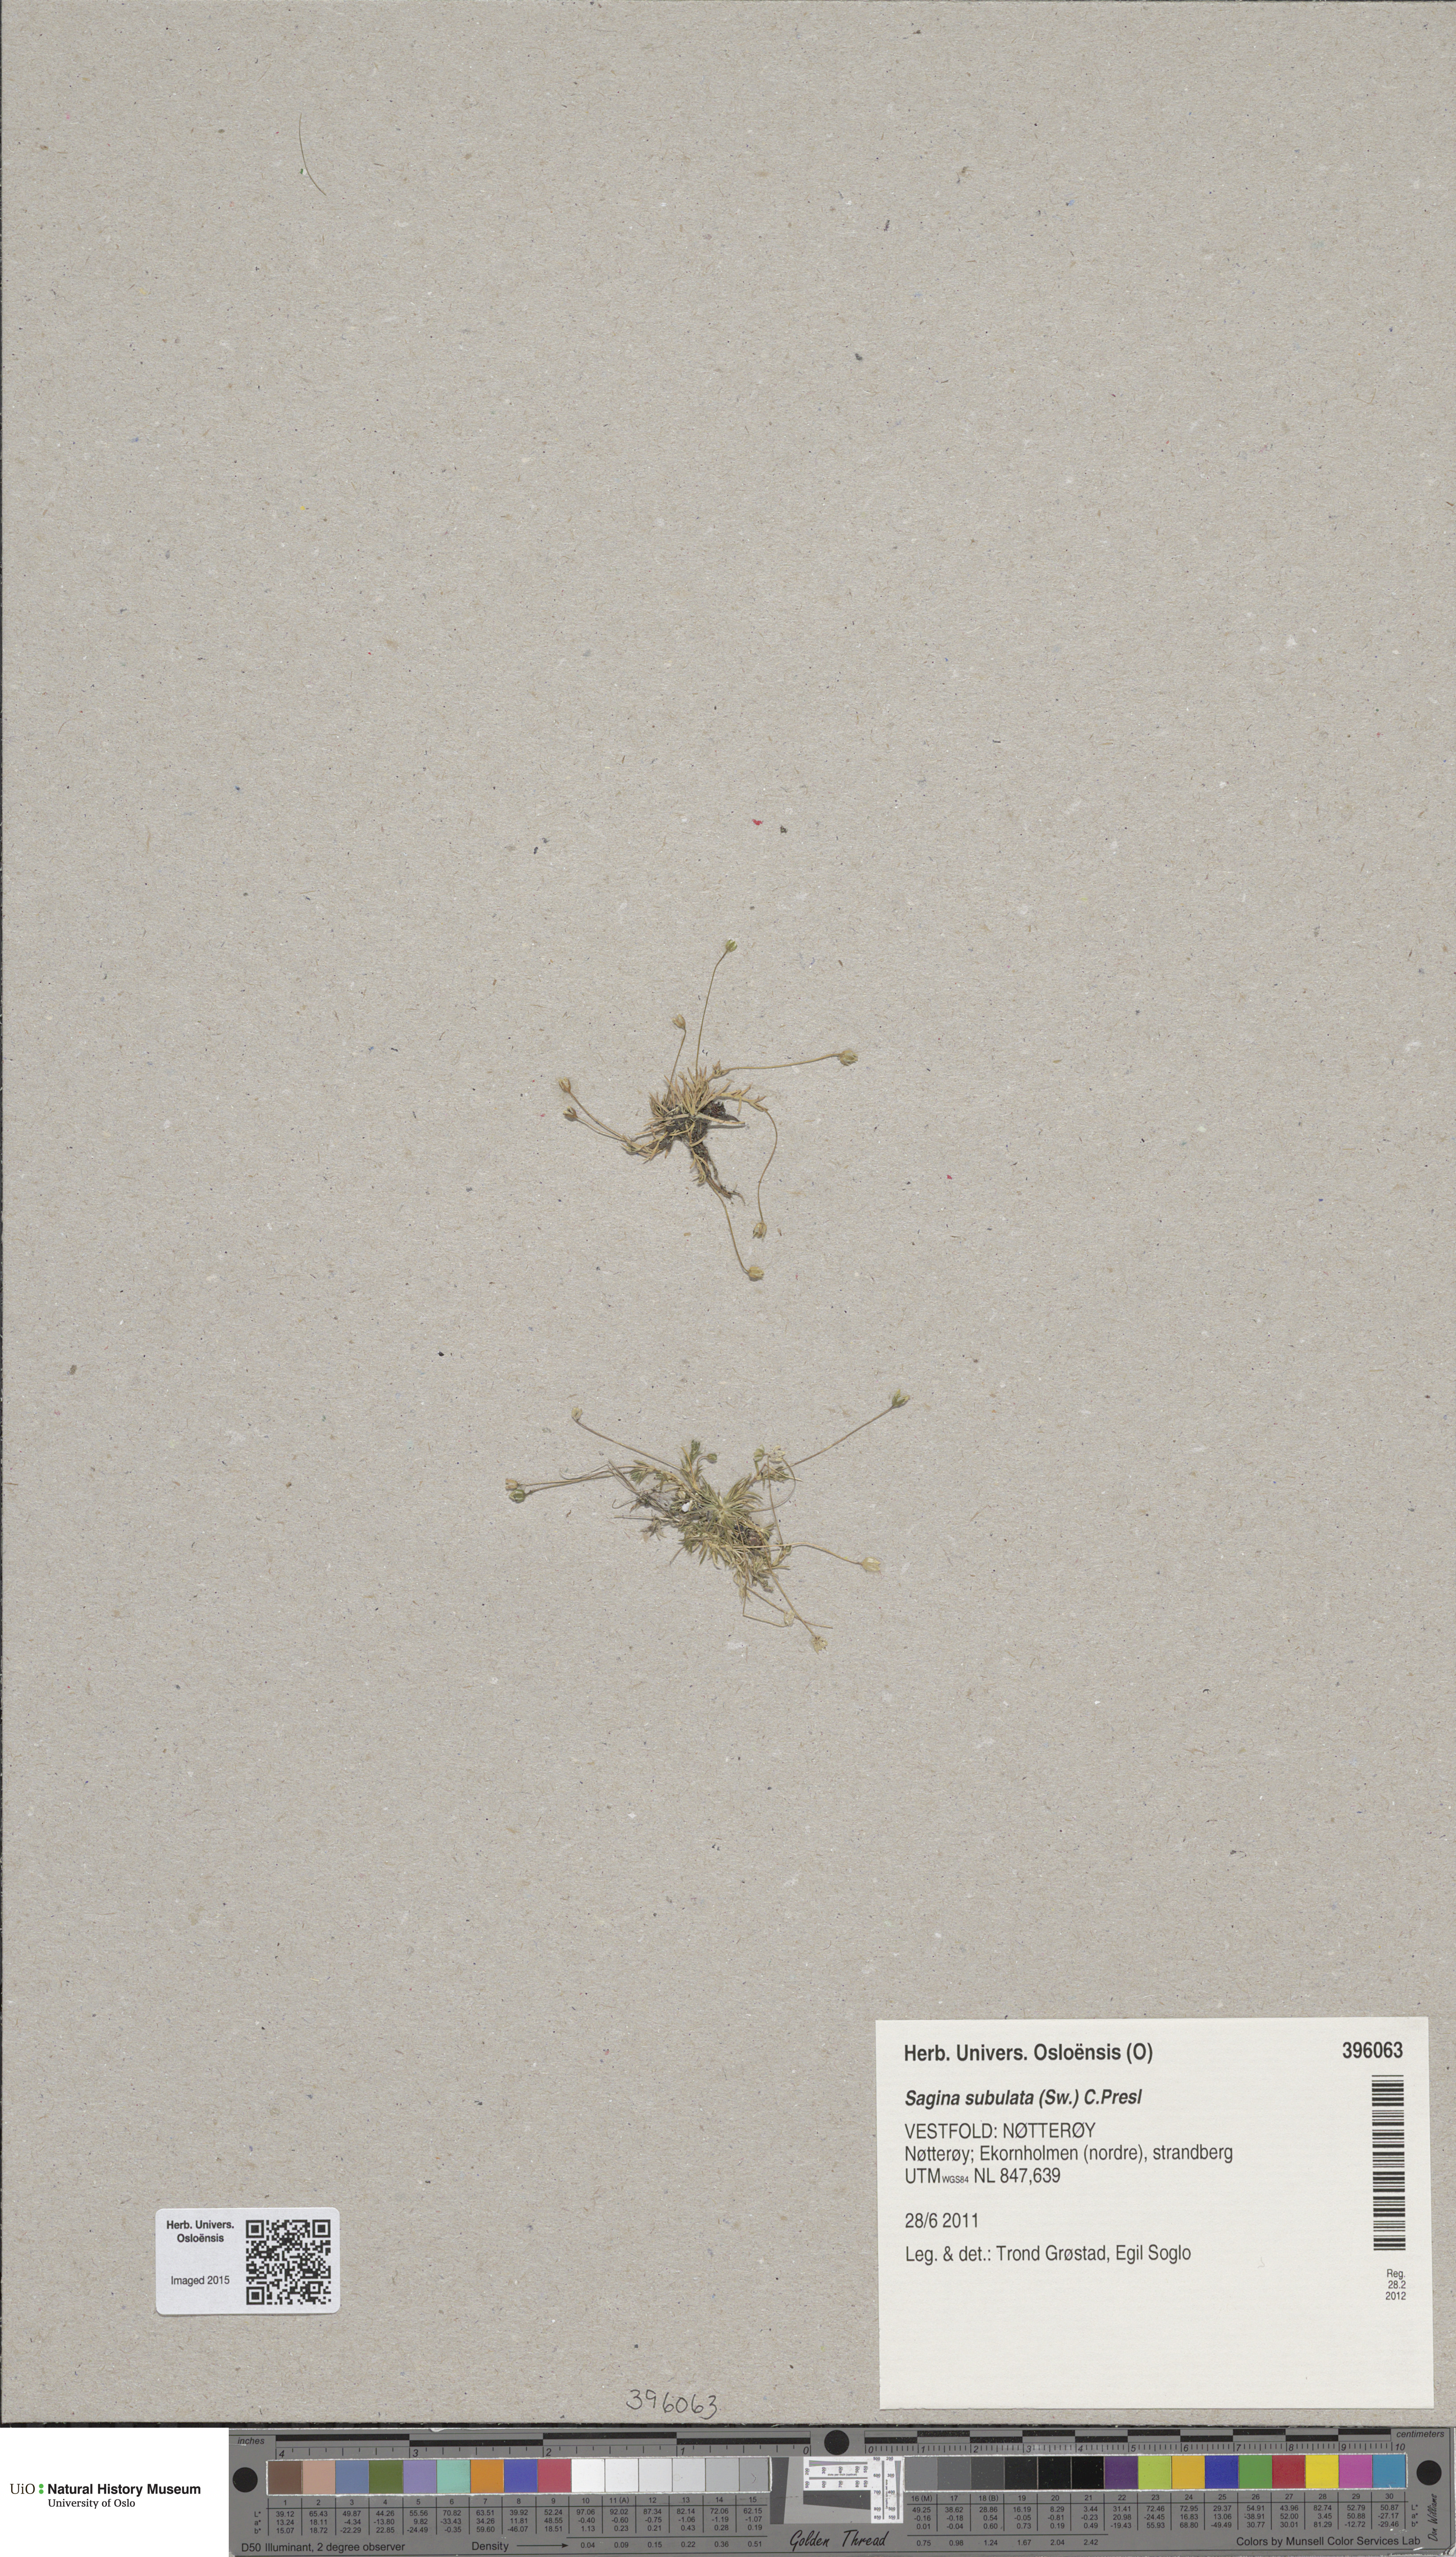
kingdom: Plantae
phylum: Tracheophyta
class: Magnoliopsida
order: Caryophyllales
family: Caryophyllaceae
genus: Sagina
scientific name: Sagina alexandrae
